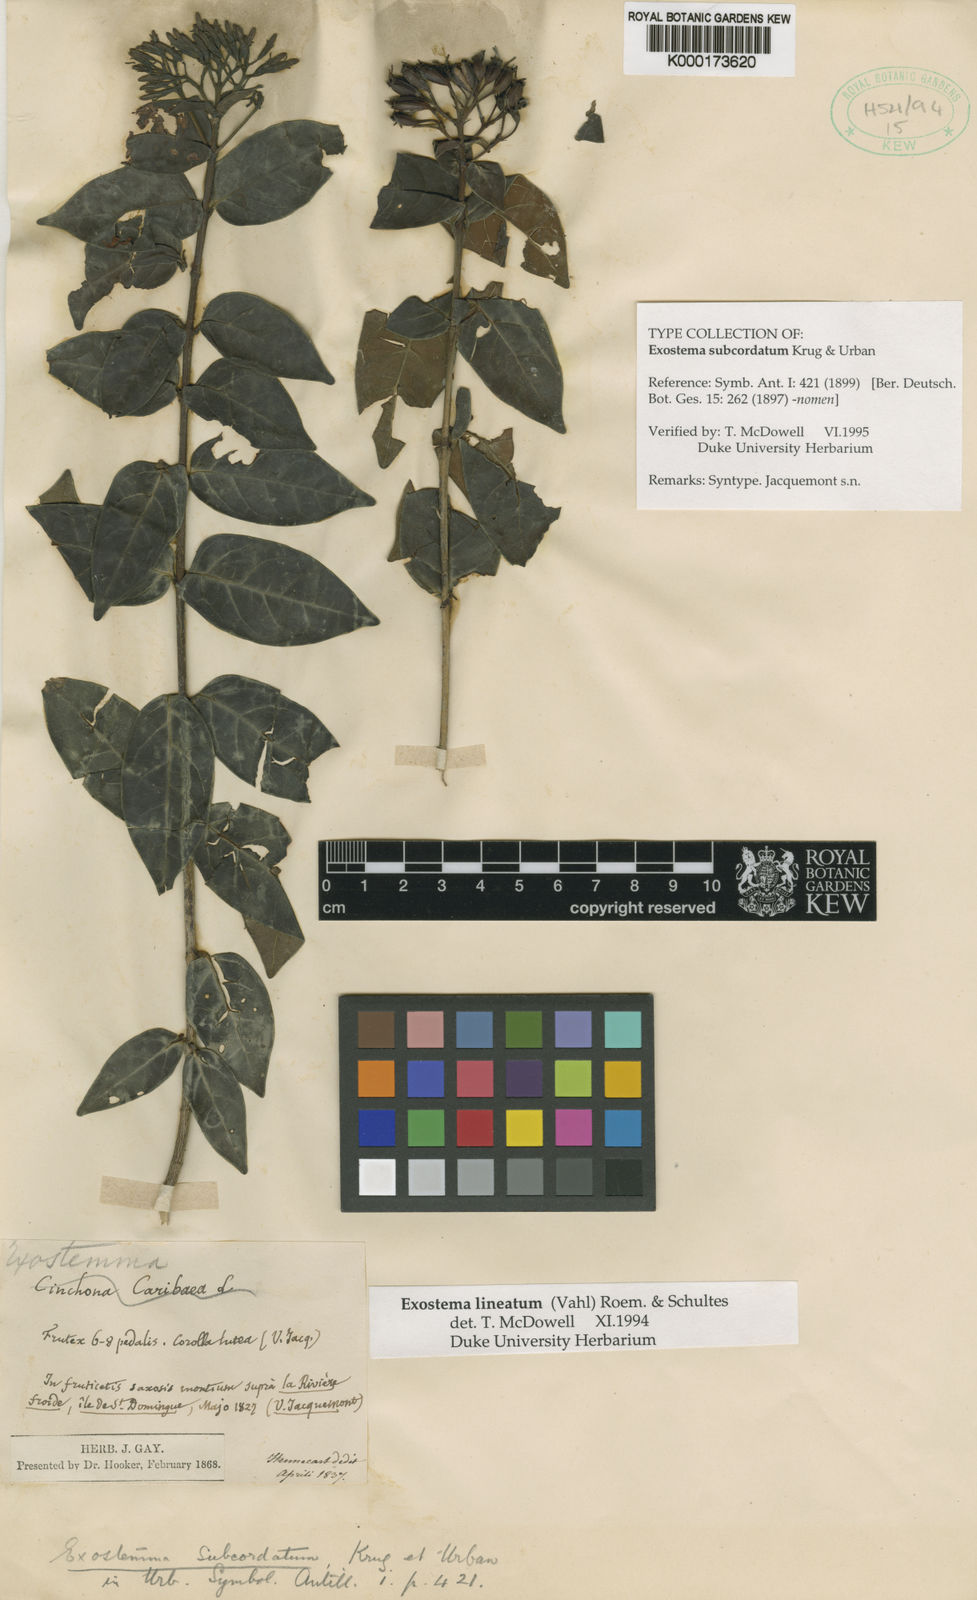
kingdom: Plantae
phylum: Tracheophyta
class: Magnoliopsida
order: Gentianales
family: Rubiaceae
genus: Solenandra
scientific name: Solenandra lineata
